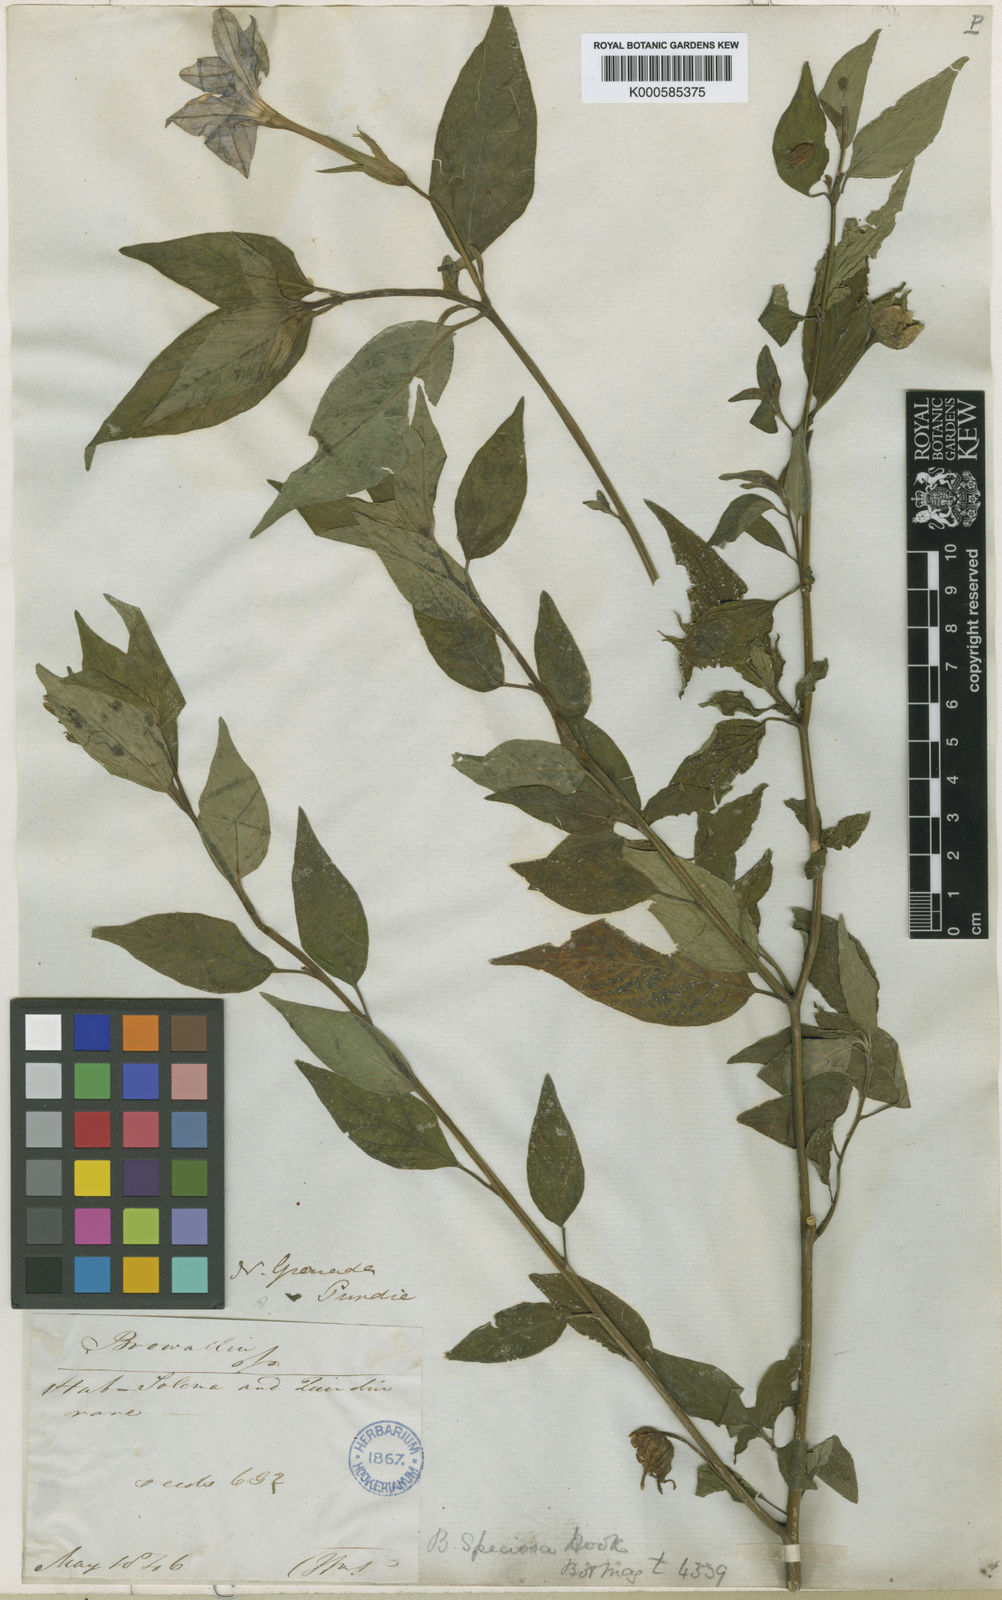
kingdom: Plantae
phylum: Tracheophyta
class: Magnoliopsida
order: Solanales
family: Solanaceae
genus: Browallia
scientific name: Browallia speciosa
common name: Bush-violet
